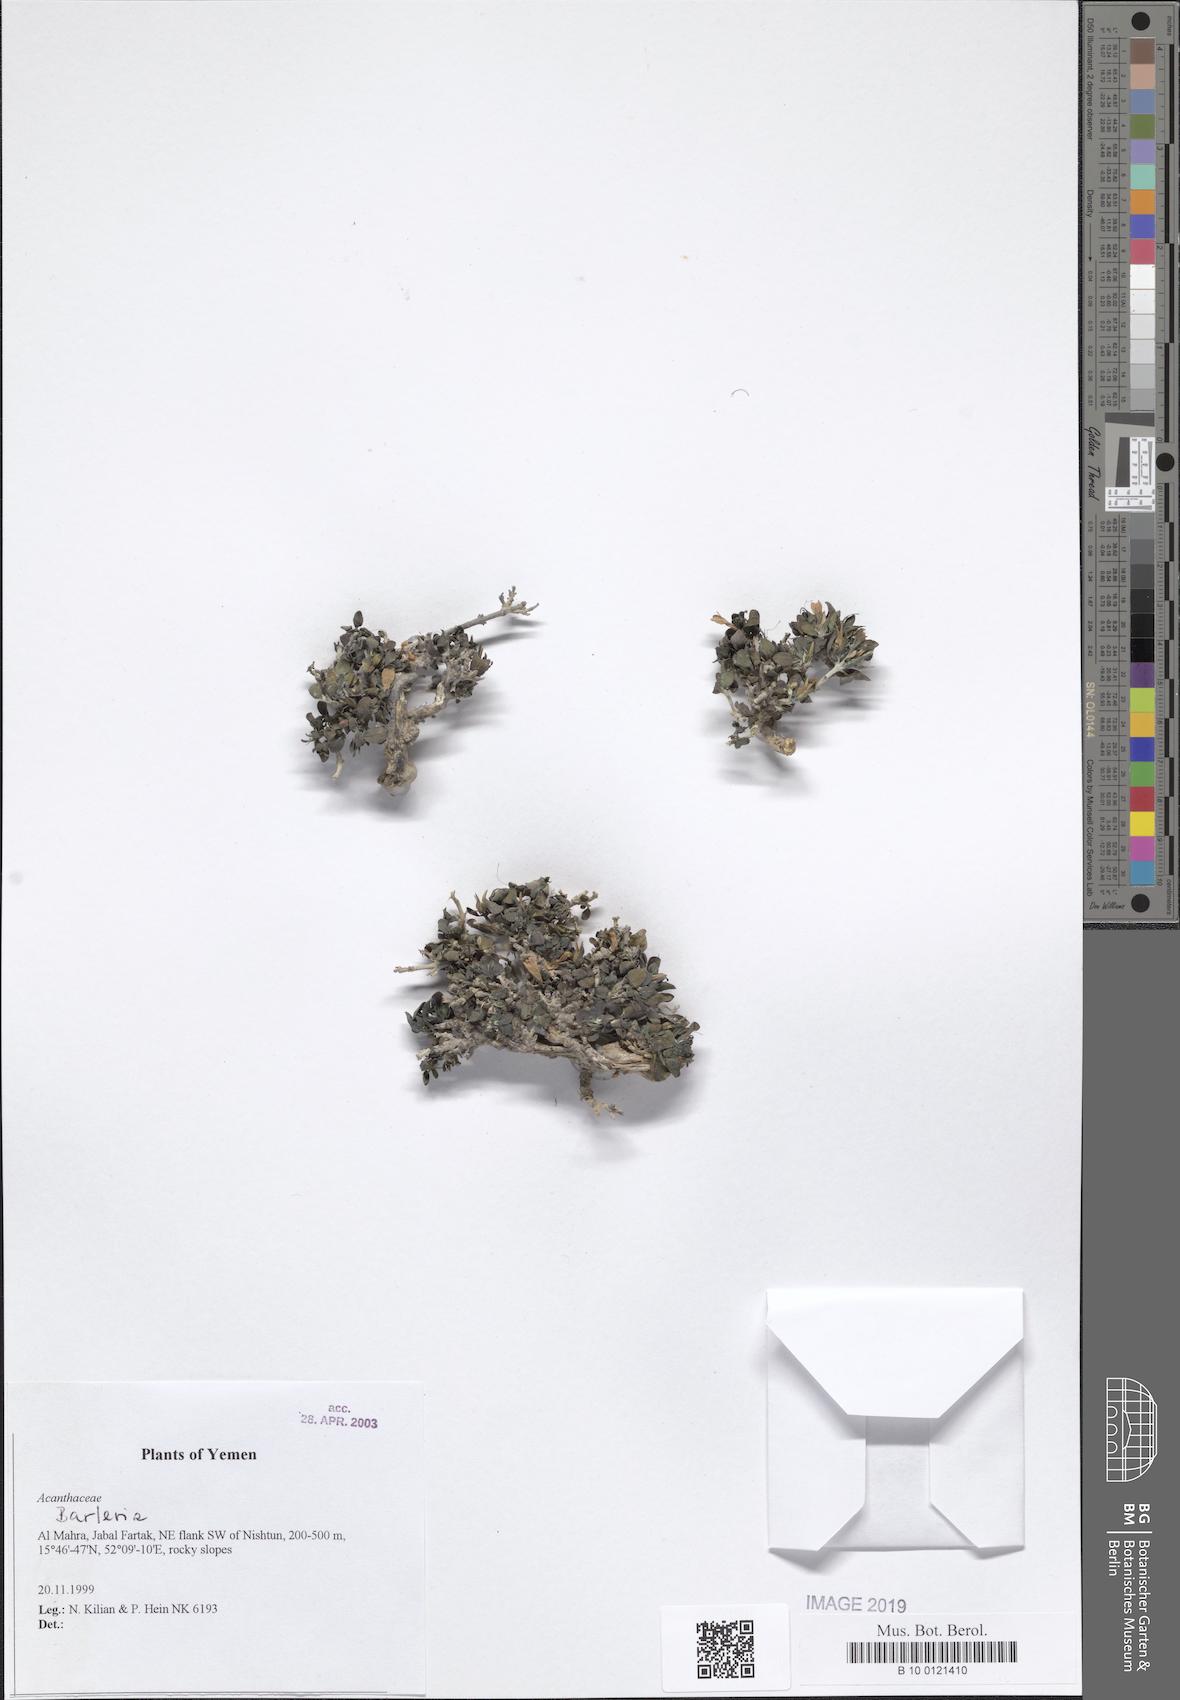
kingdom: Plantae
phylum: Tracheophyta
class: Magnoliopsida
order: Lamiales
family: Acanthaceae
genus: Barleria
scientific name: Barleria
